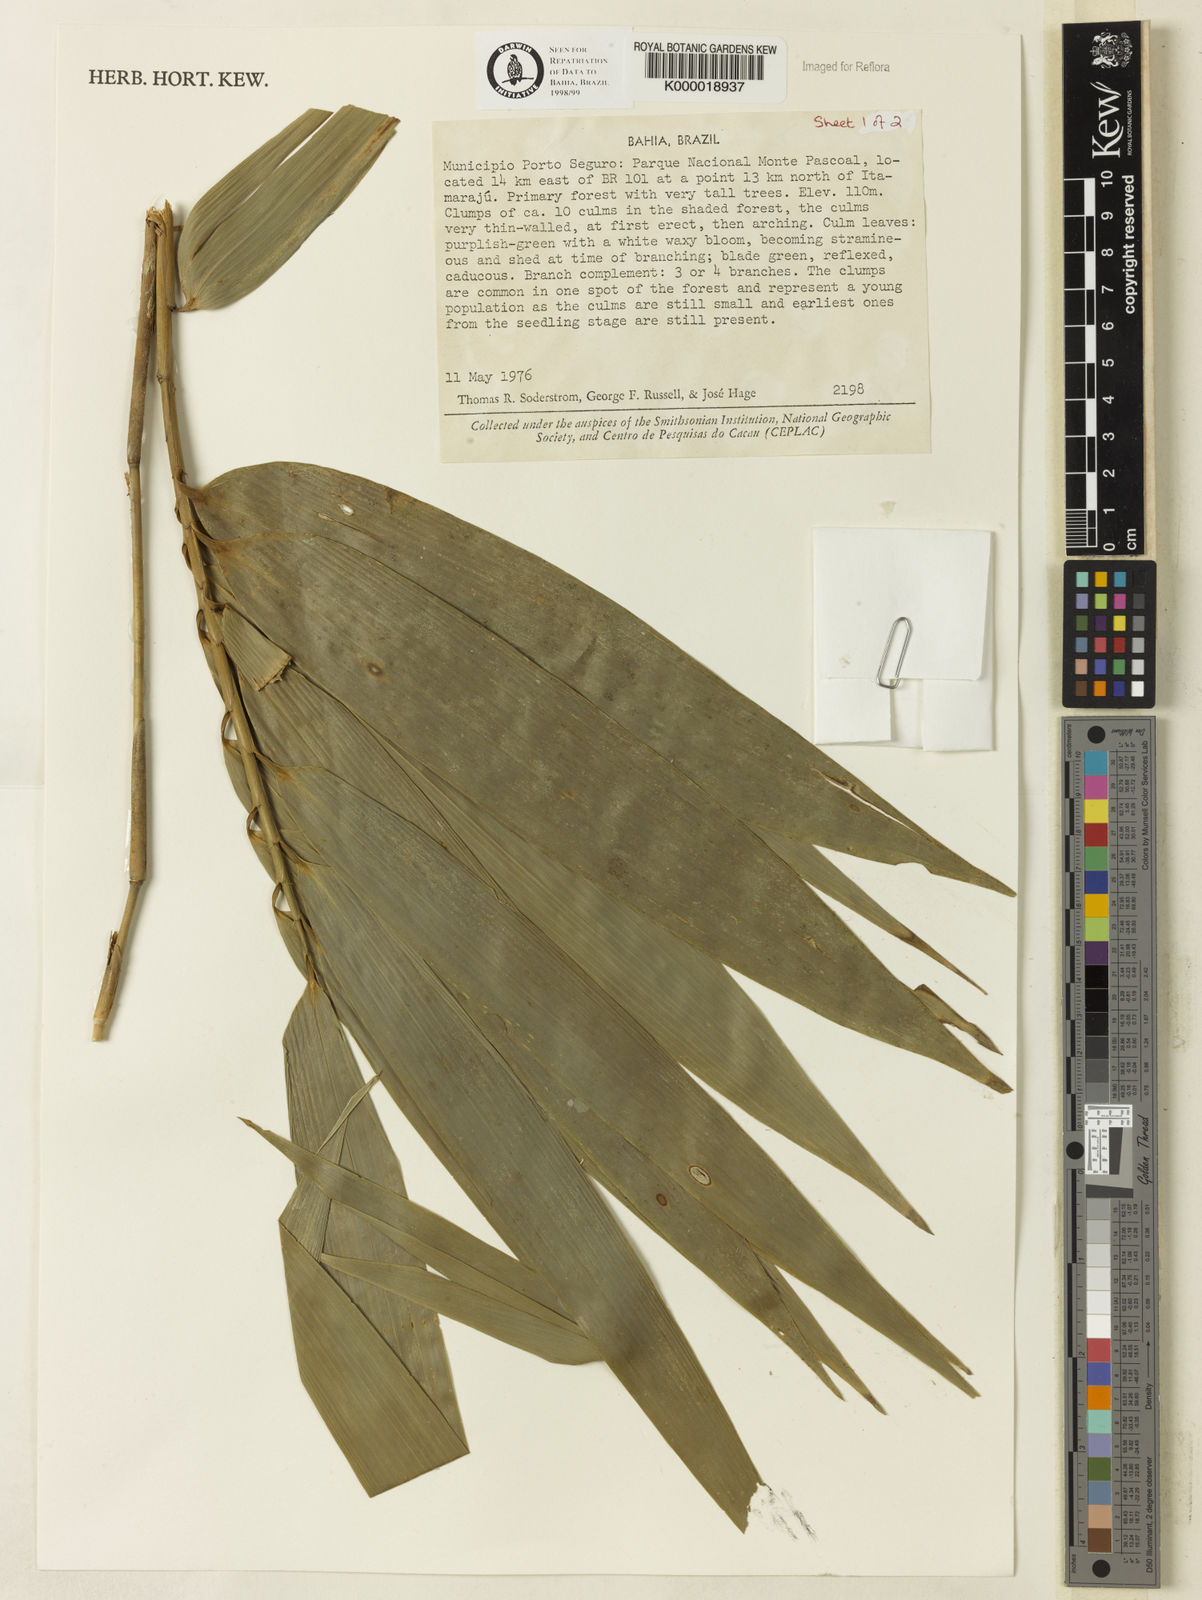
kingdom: Plantae
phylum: Tracheophyta
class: Liliopsida
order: Poales
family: Poaceae
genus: Merostachys
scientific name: Merostachys procerrima
